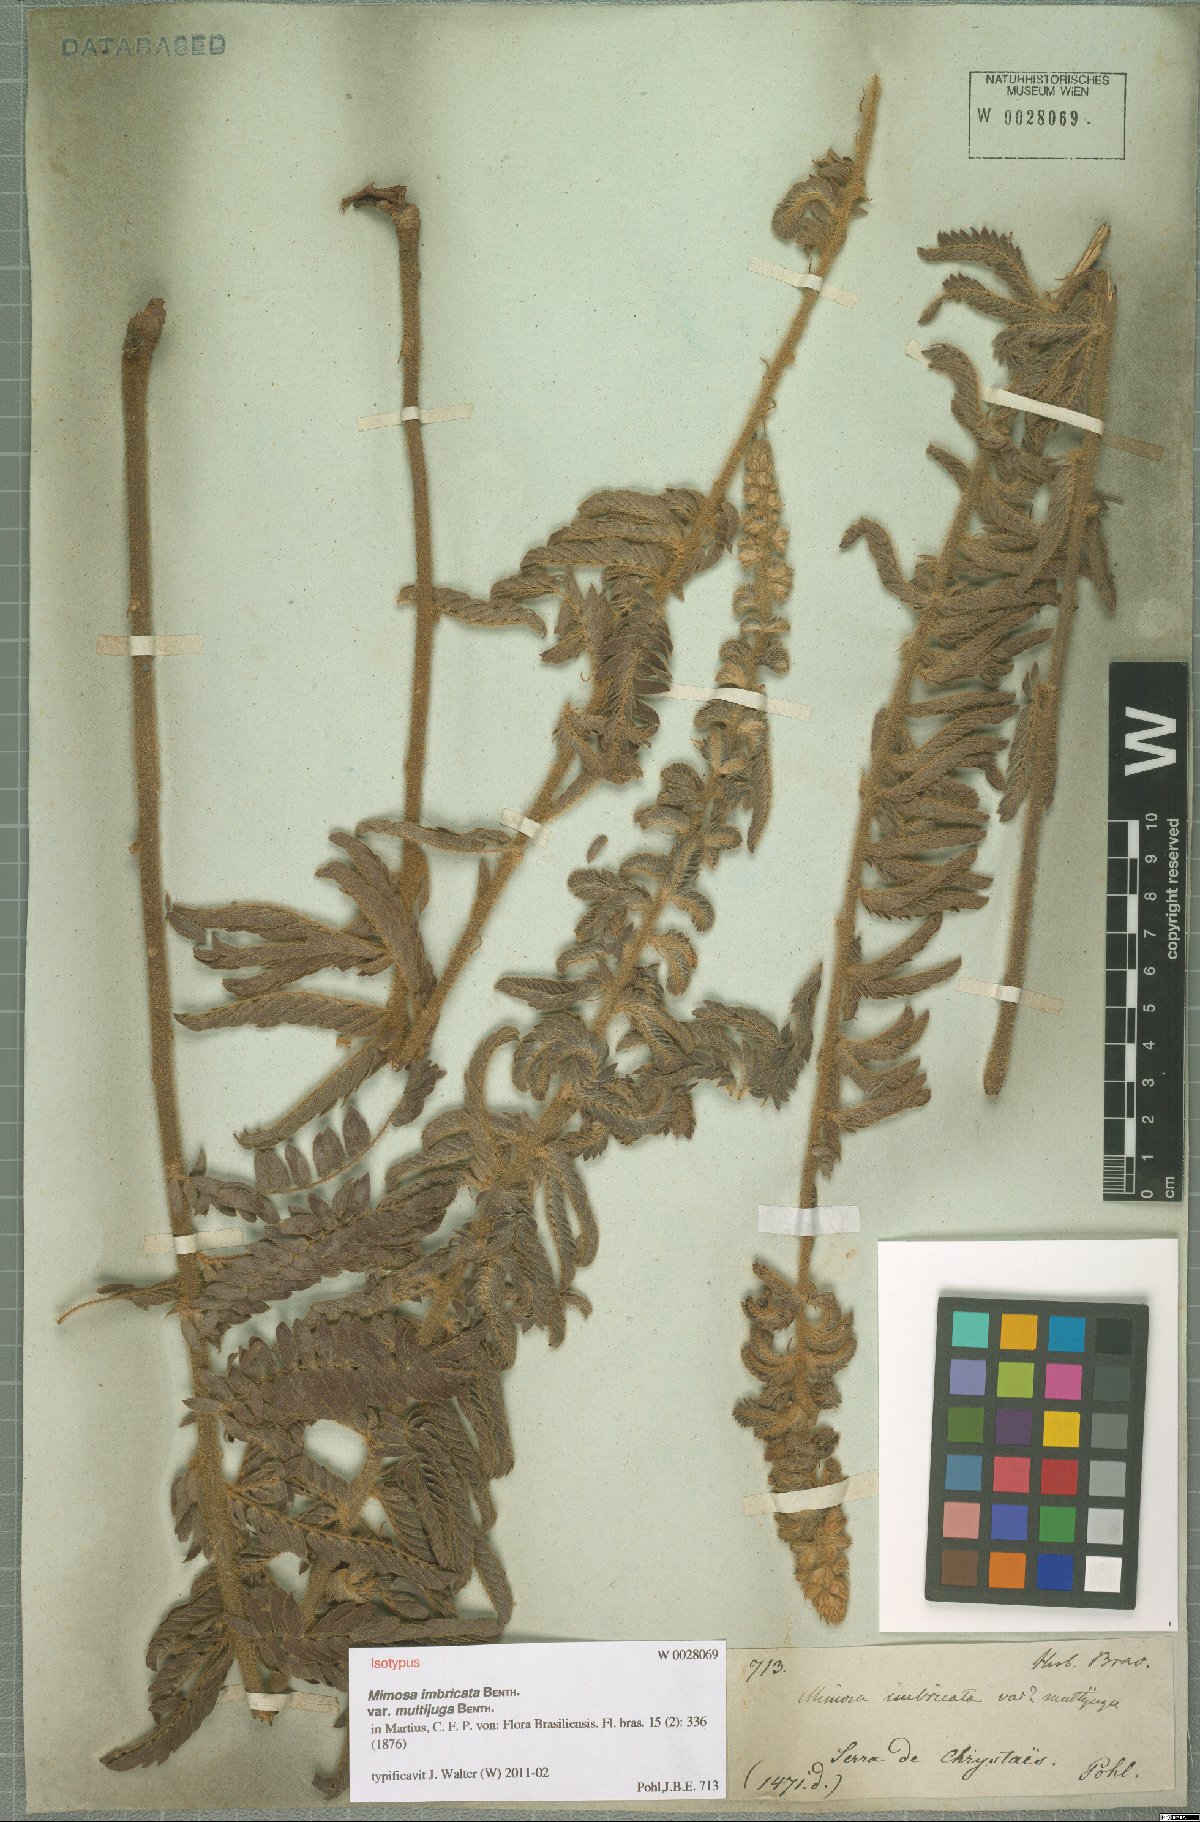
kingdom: Plantae
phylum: Tracheophyta
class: Magnoliopsida
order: Fabales
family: Fabaceae
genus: Mimosa
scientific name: Mimosa radula
